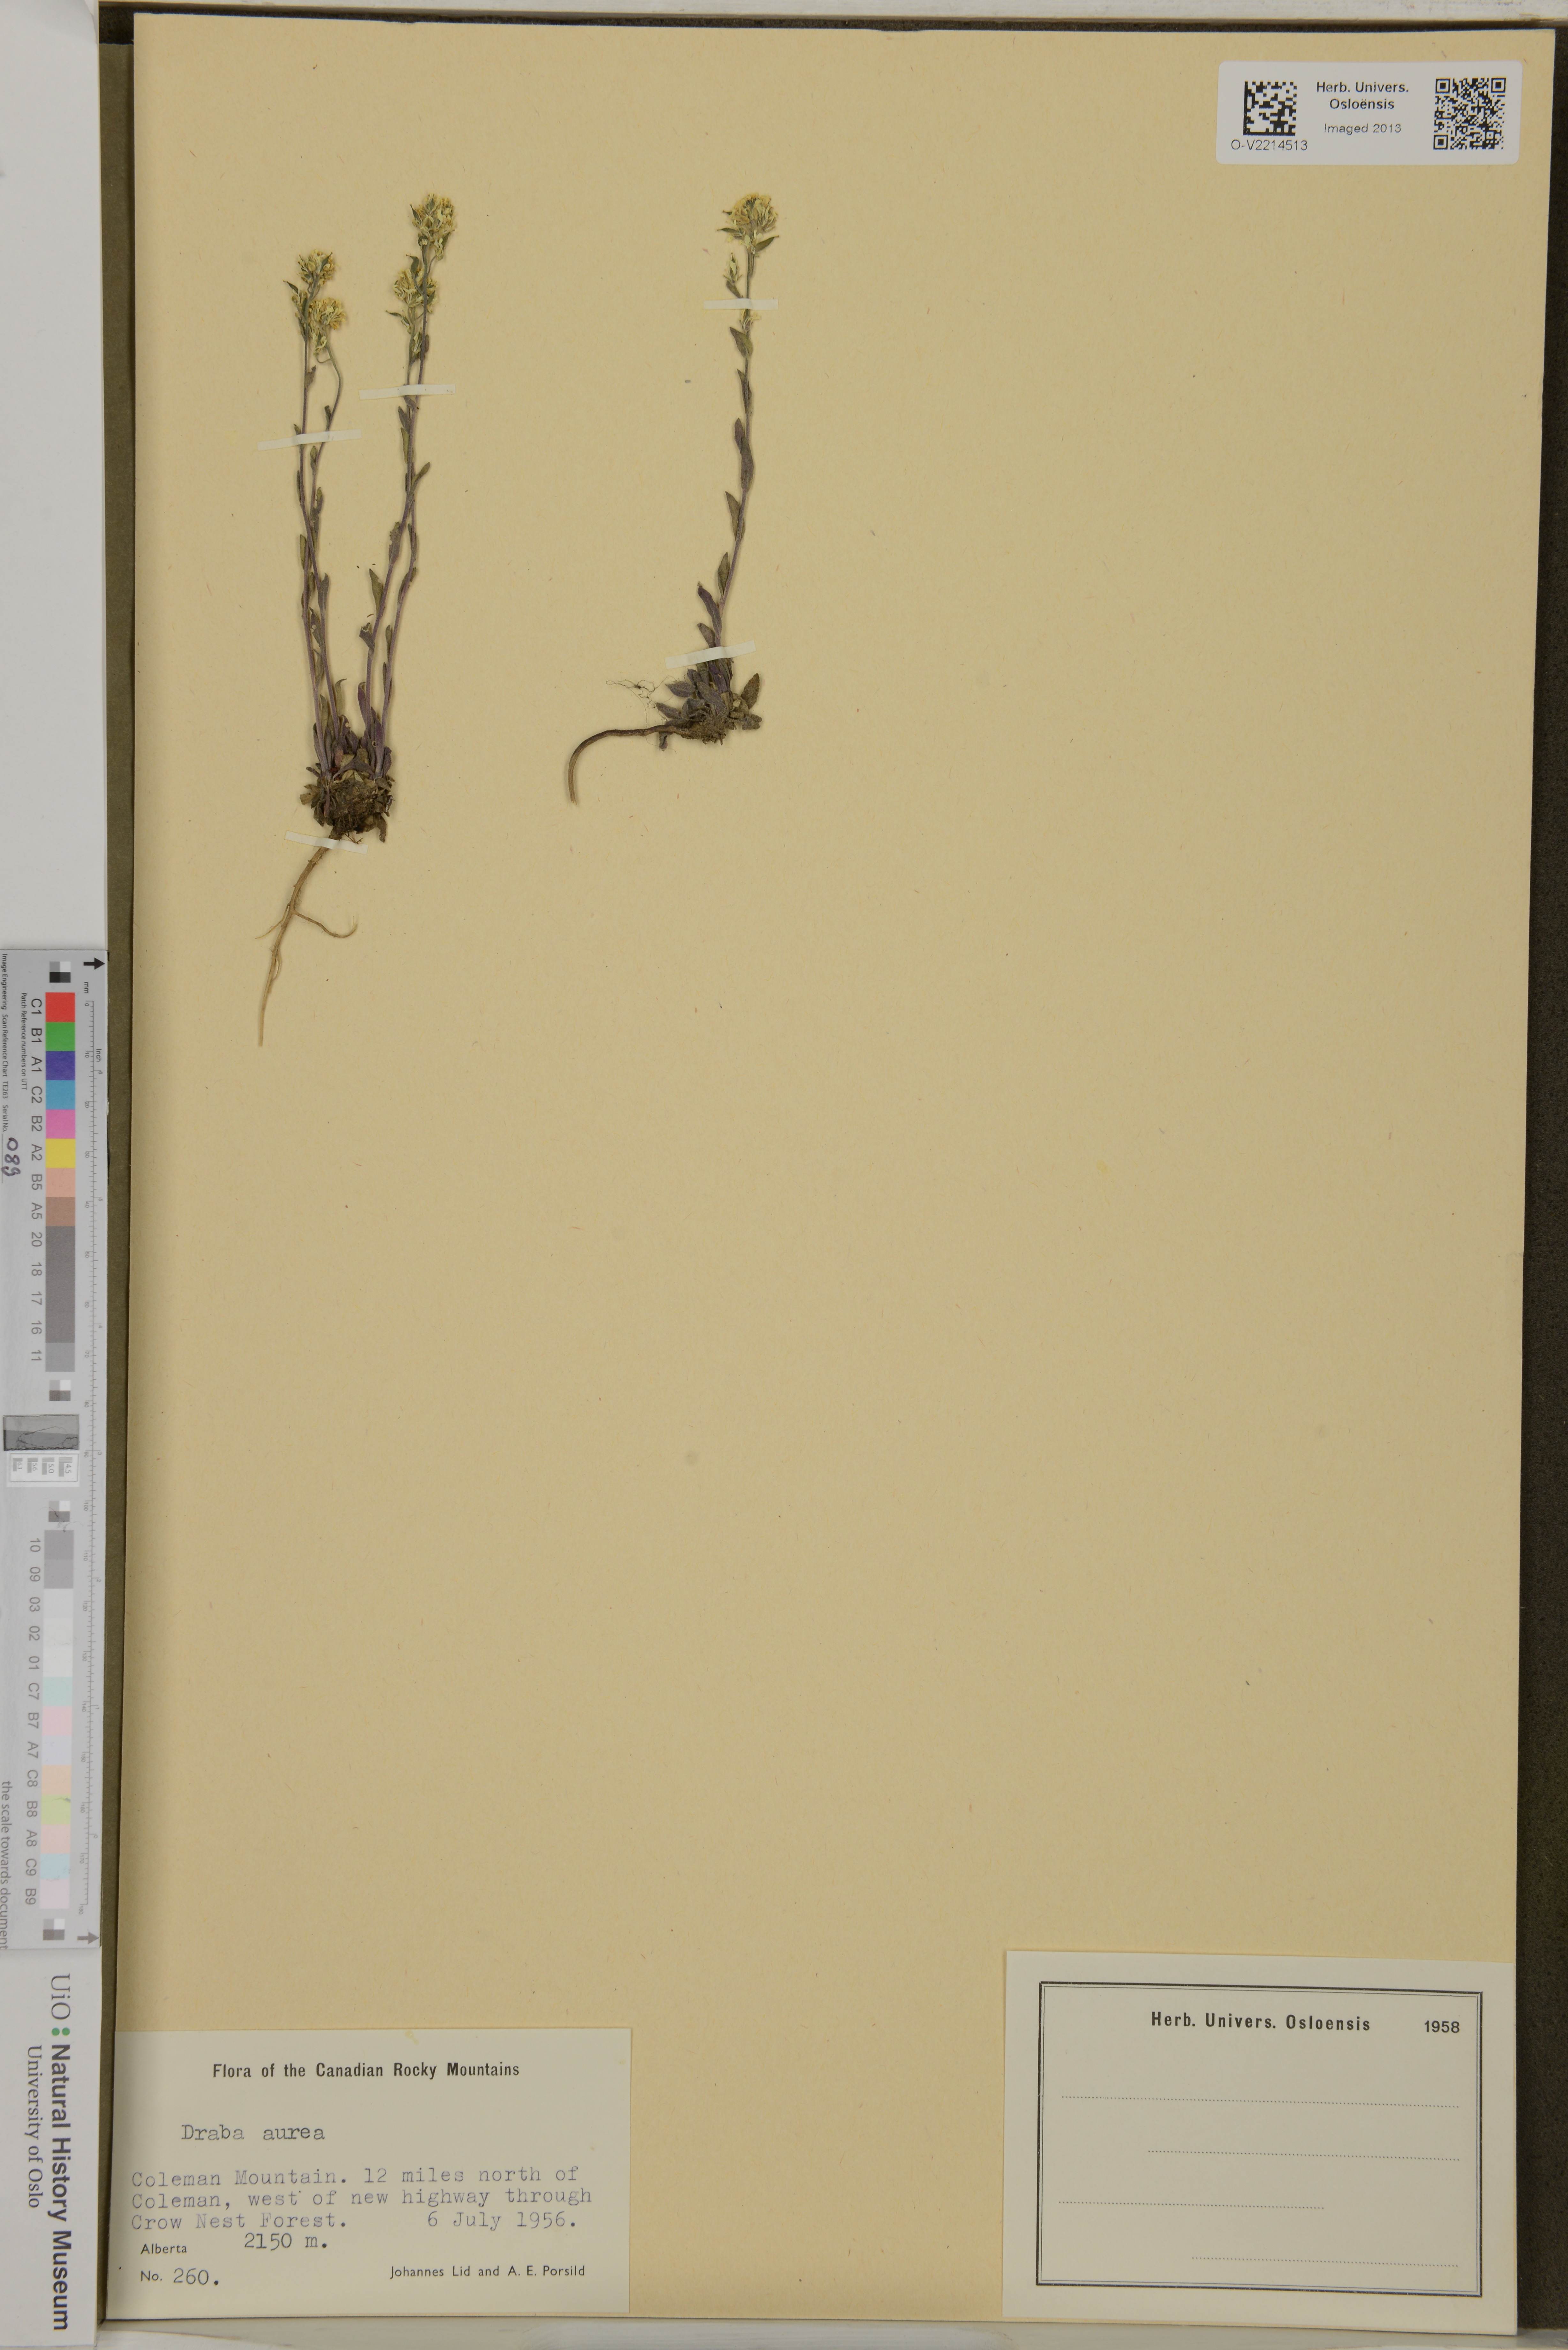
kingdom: Plantae
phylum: Tracheophyta
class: Magnoliopsida
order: Brassicales
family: Brassicaceae
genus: Draba
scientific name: Draba aurea
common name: Golden draba
